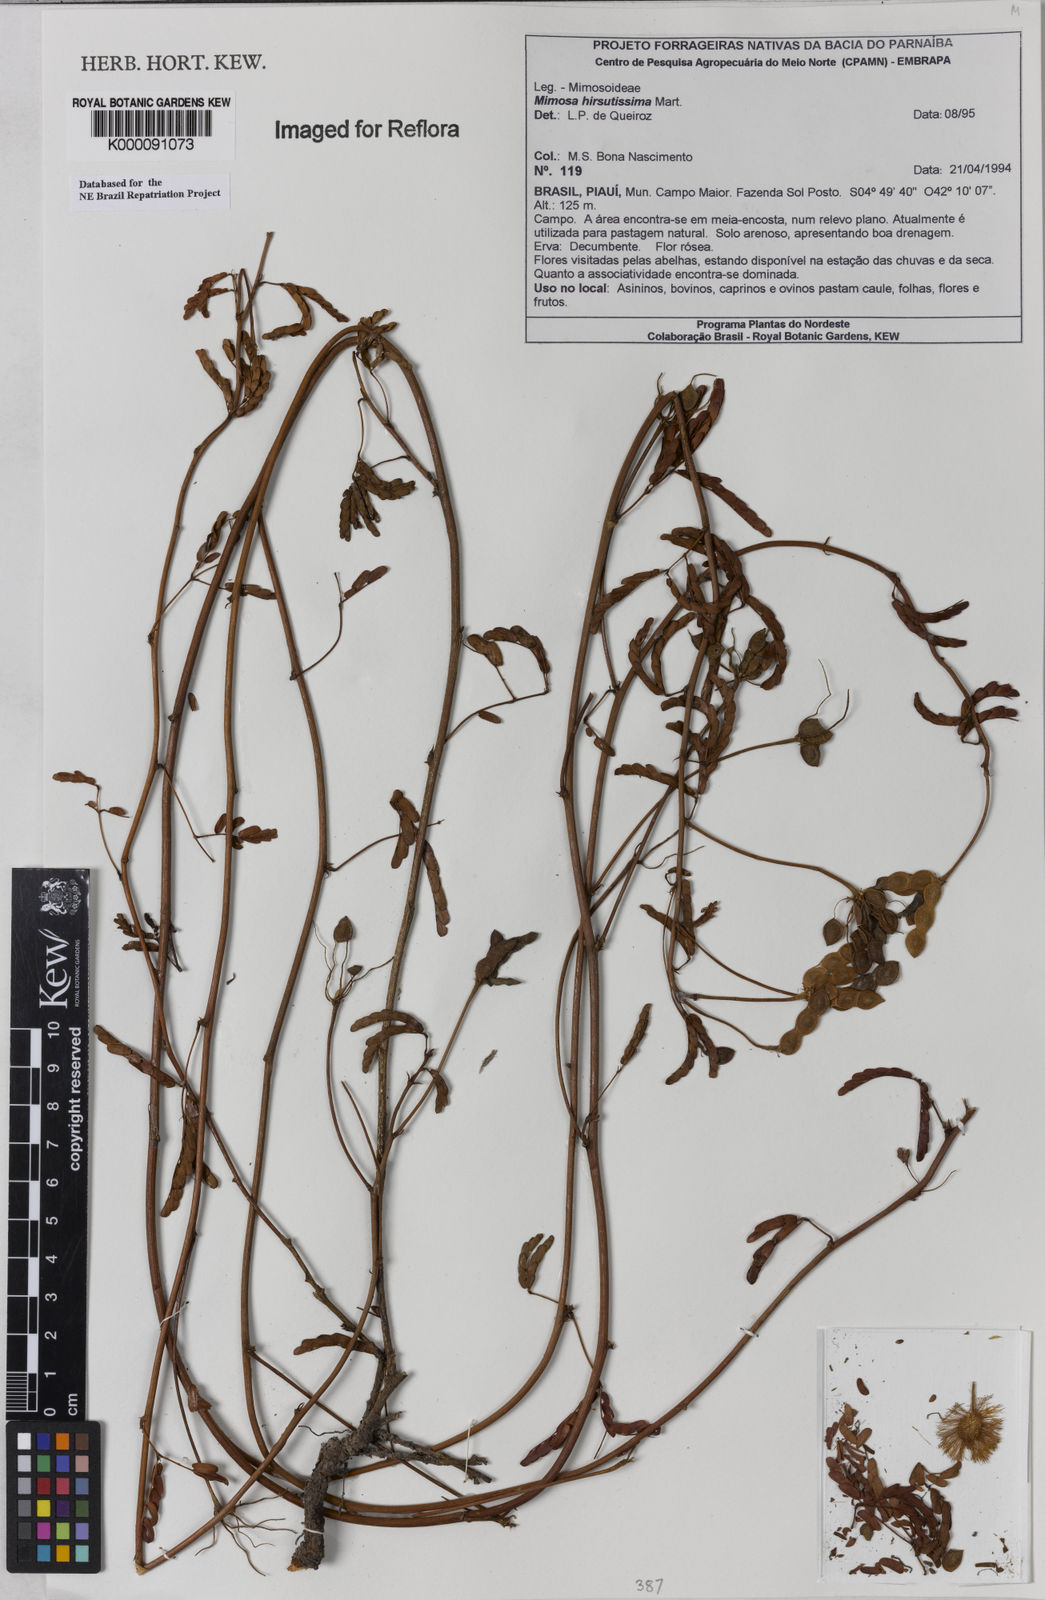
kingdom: Plantae
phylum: Tracheophyta
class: Magnoliopsida
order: Fabales
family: Fabaceae
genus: Mimosa
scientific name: Mimosa hirsutissima
